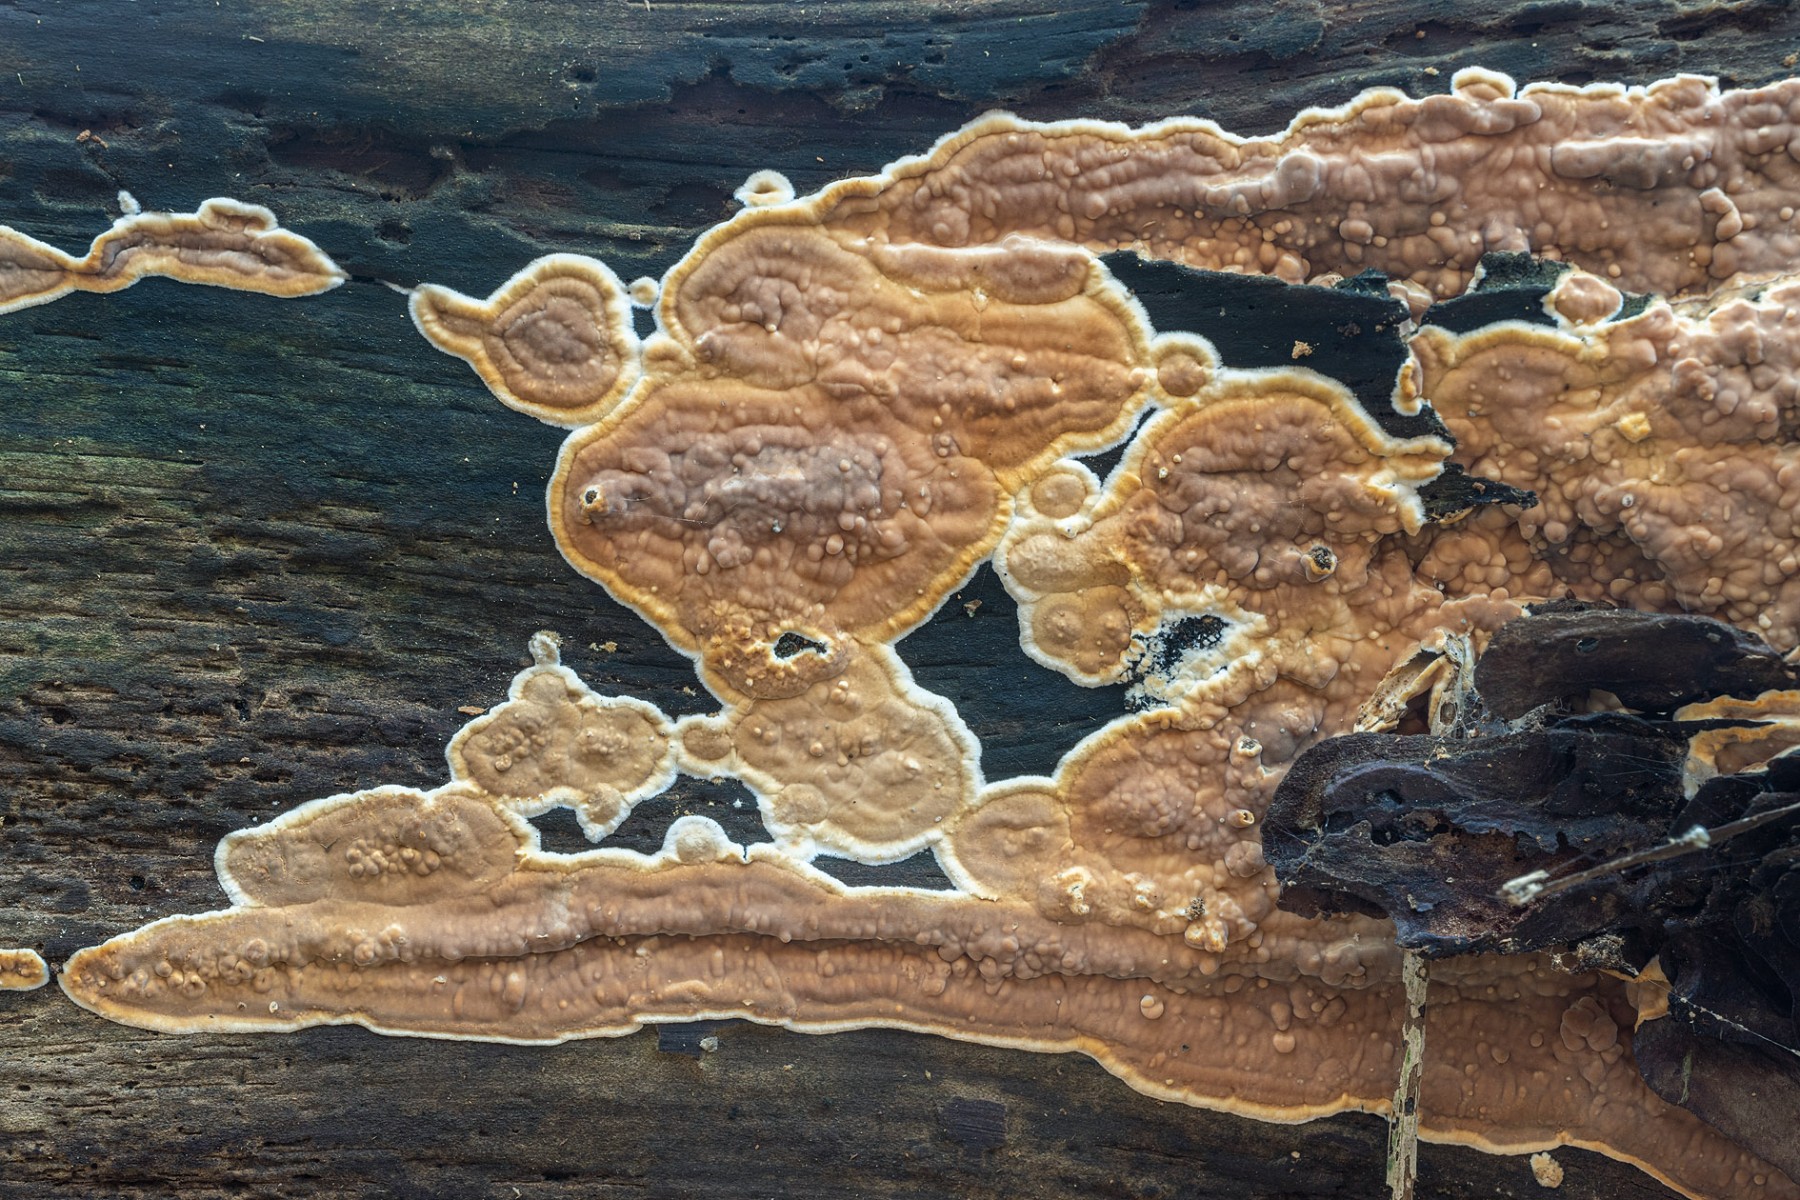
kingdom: Fungi
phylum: Basidiomycota
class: Agaricomycetes
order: Polyporales
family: Dacryobolaceae
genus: Dacryobolus
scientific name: Dacryobolus karstenii
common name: glat vulkanskorpe
